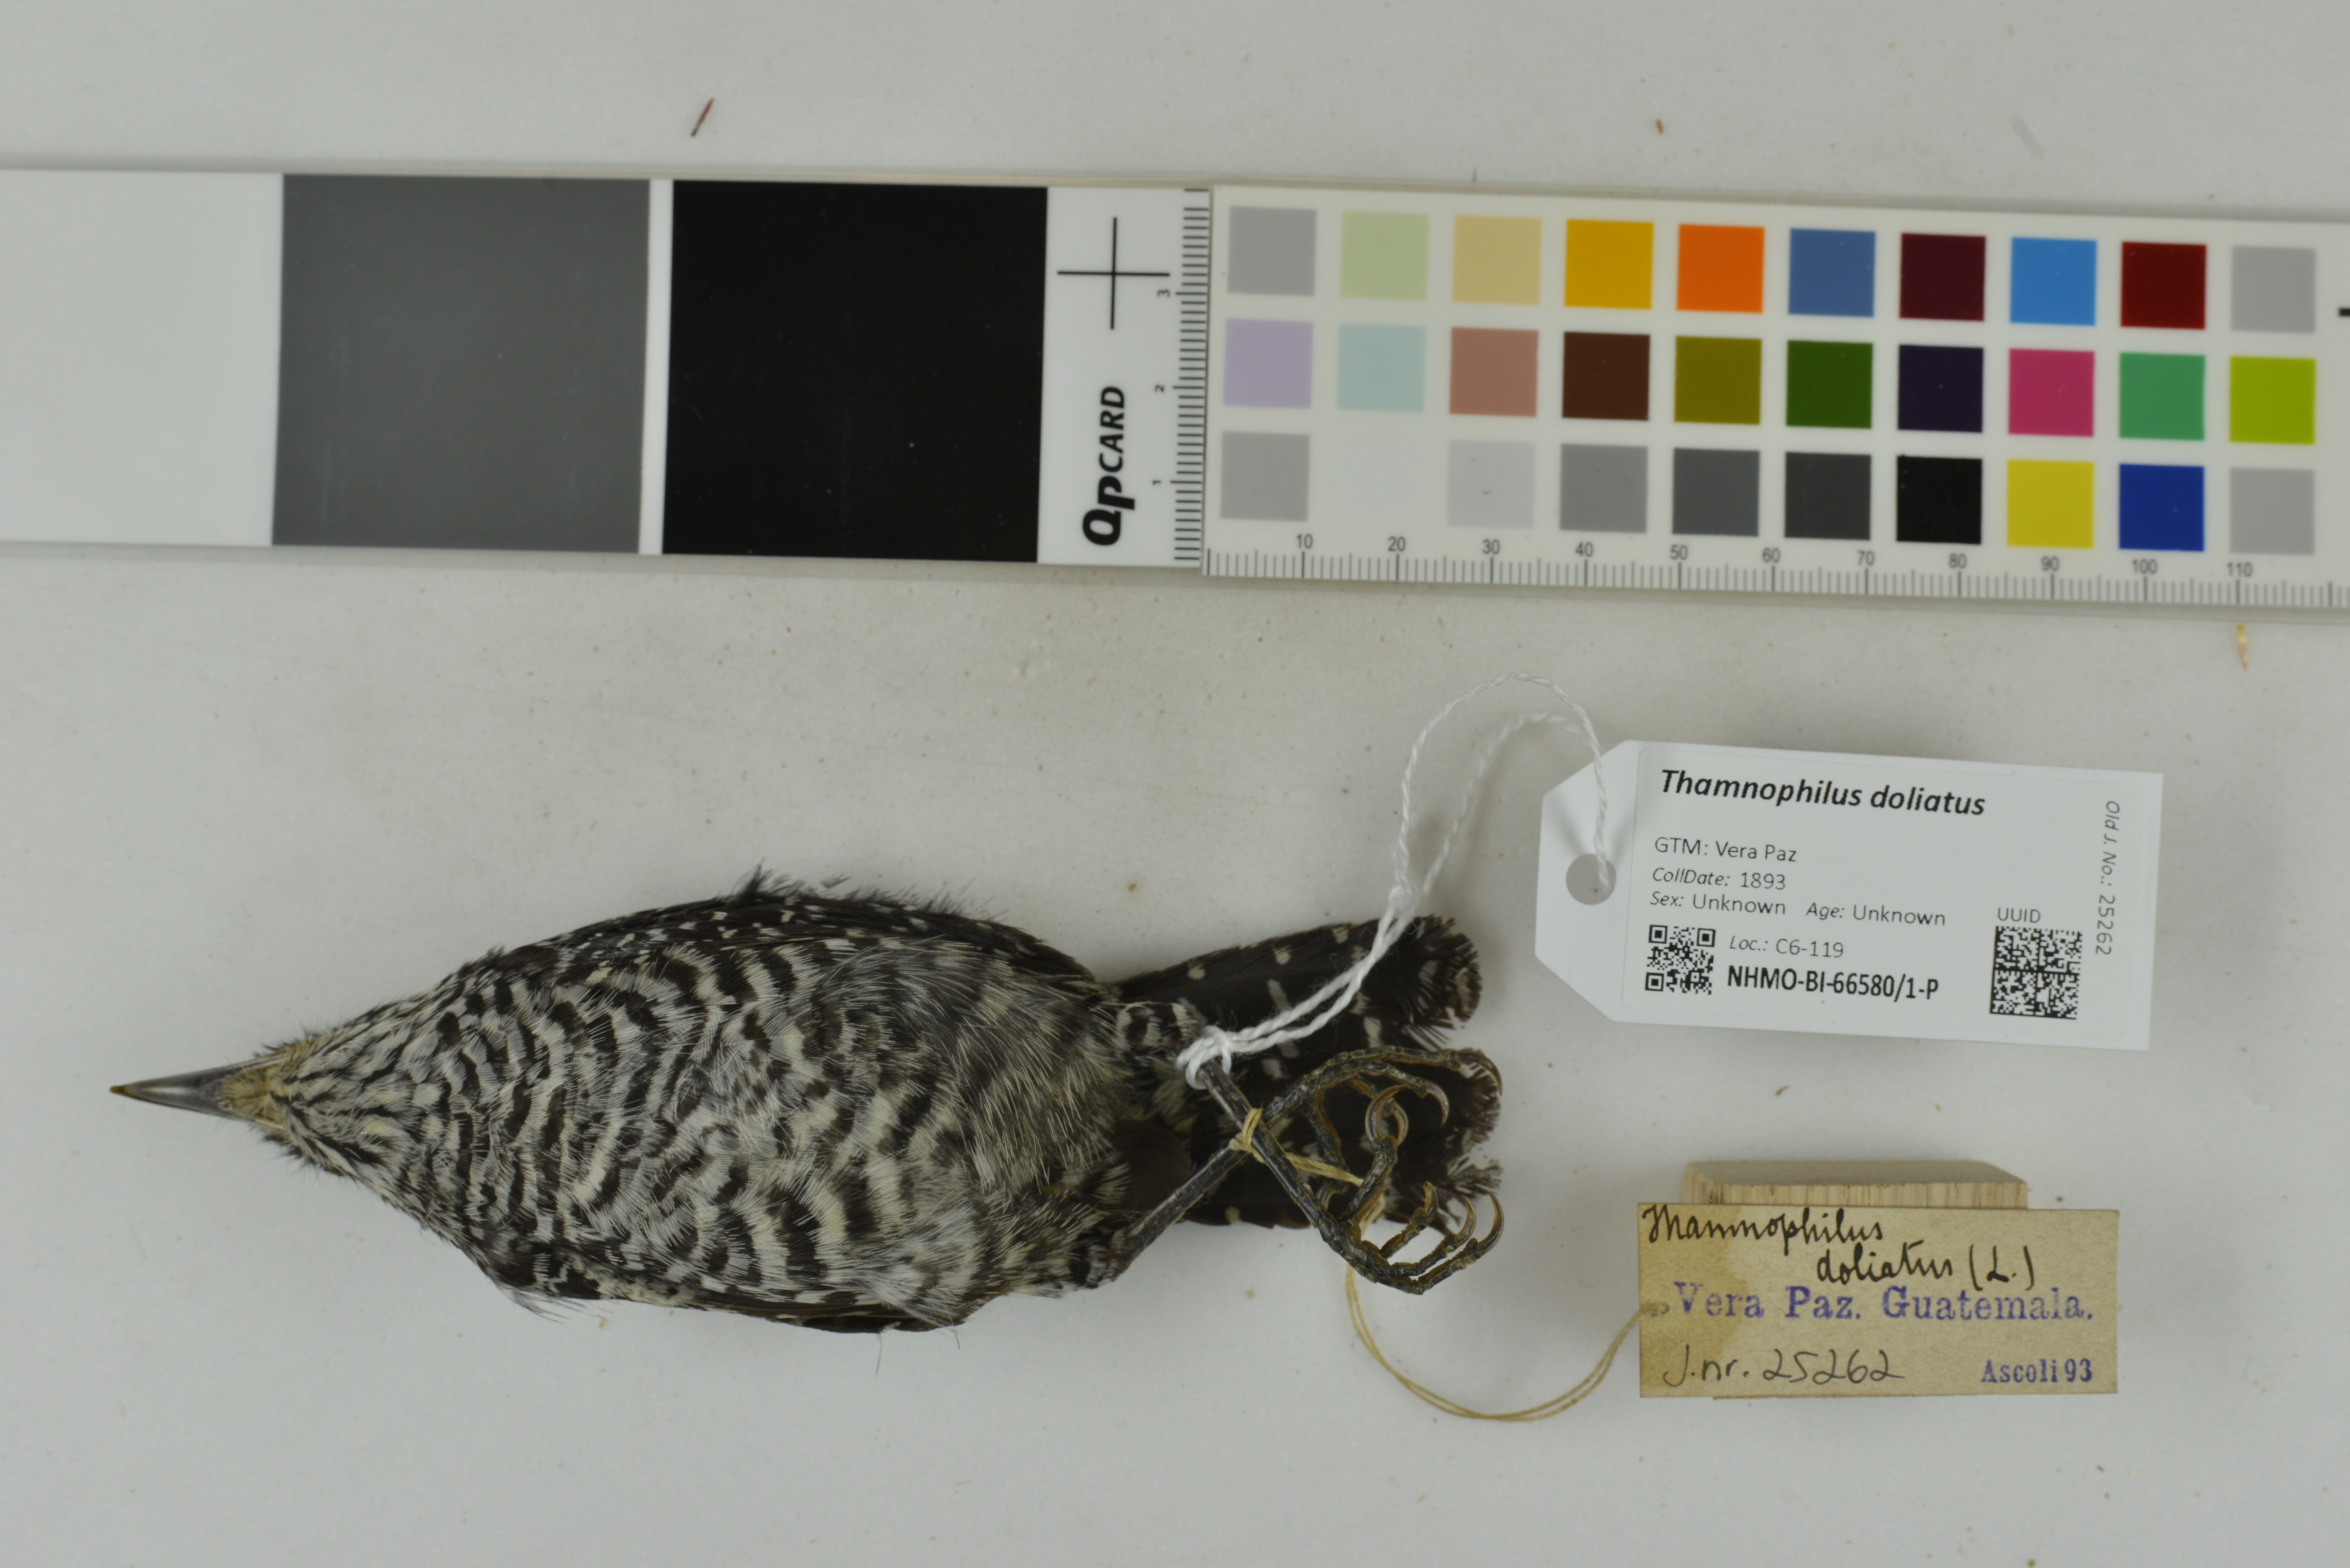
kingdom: Animalia
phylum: Chordata
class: Aves
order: Passeriformes
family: Thamnophilidae
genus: Thamnophilus
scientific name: Thamnophilus doliatus
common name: Barred antshrike
